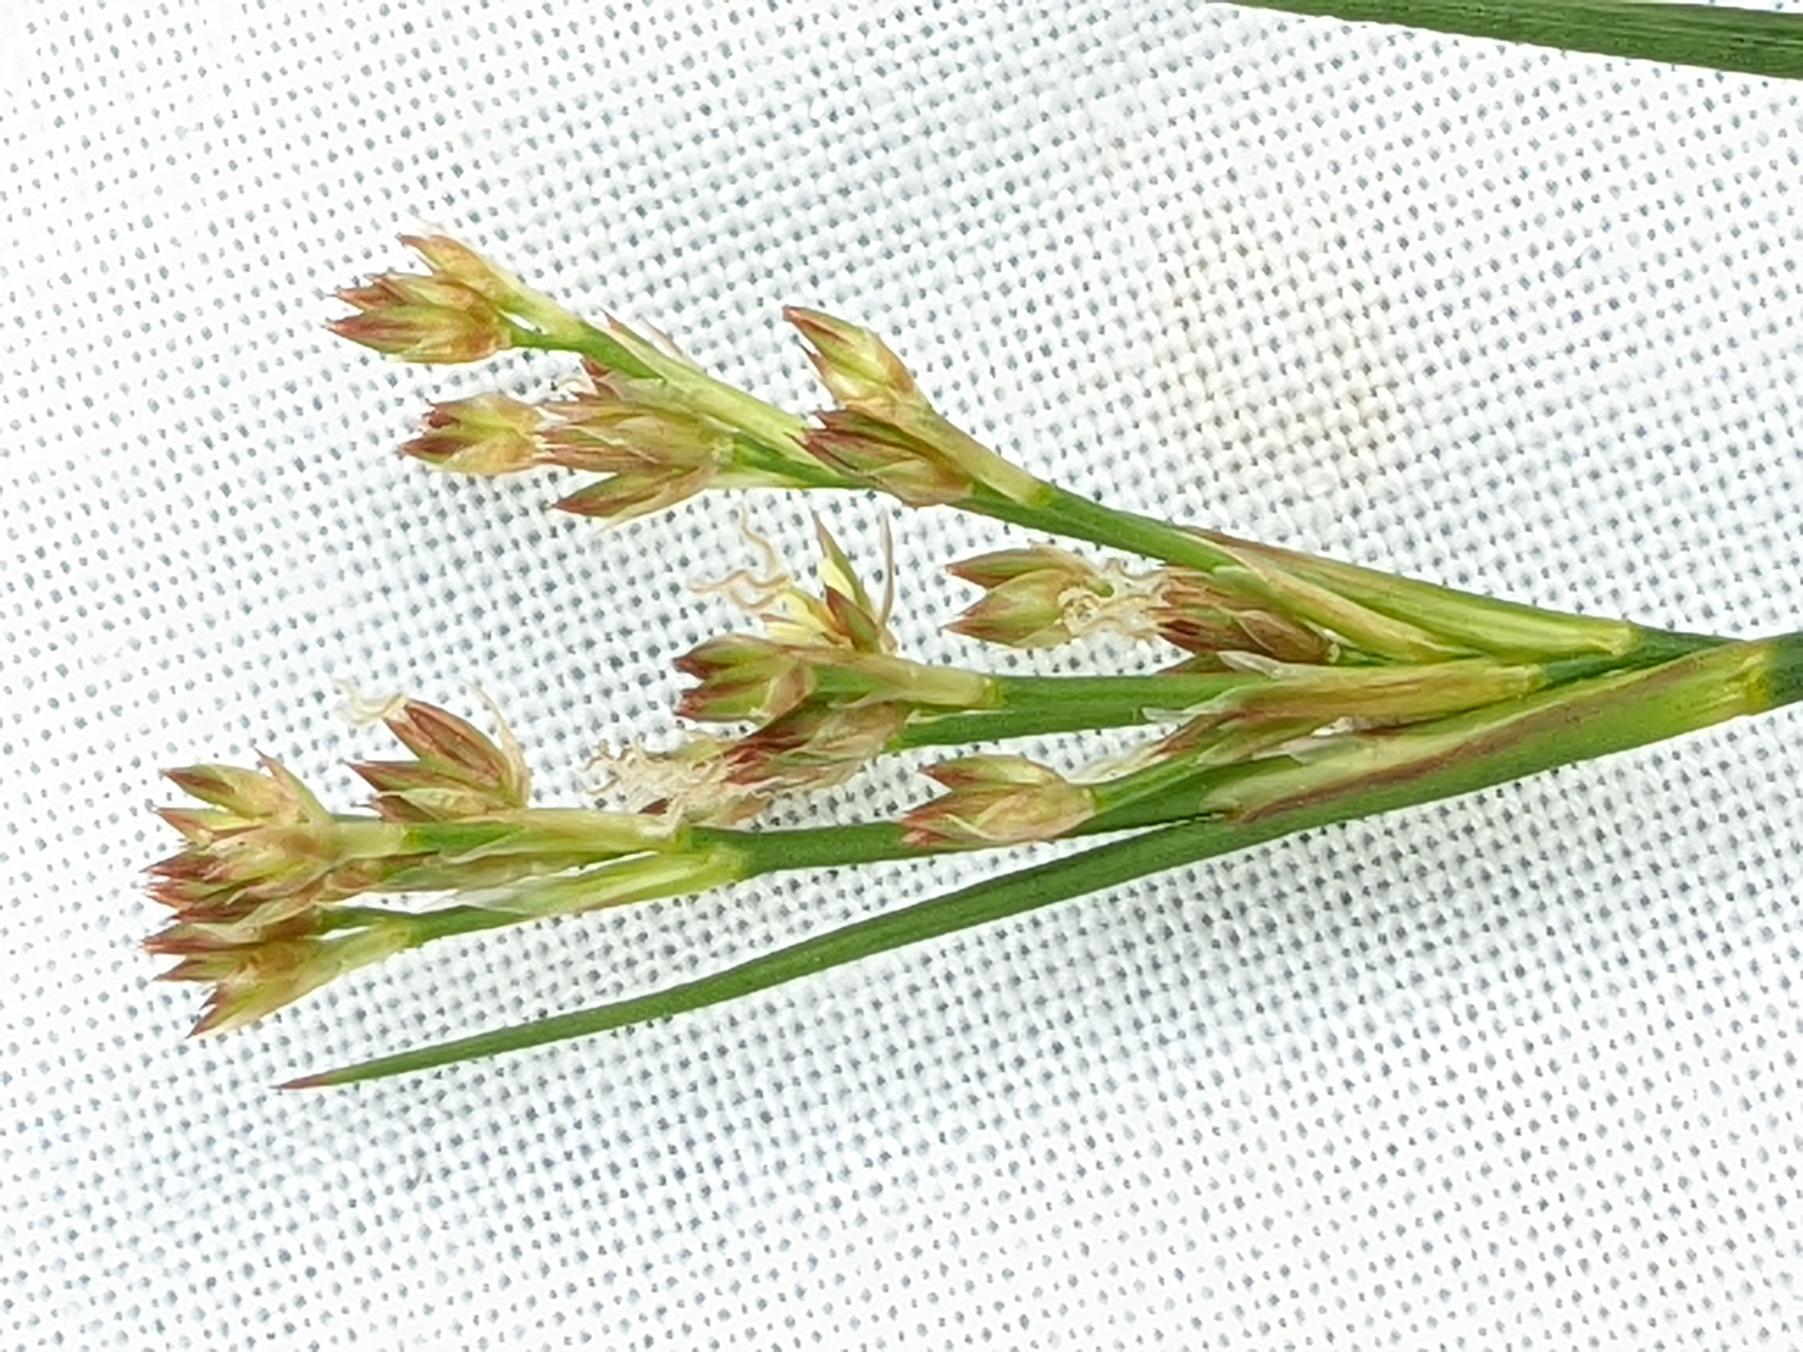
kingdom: Plantae
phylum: Tracheophyta
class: Liliopsida
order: Poales
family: Juncaceae
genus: Juncus
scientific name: Juncus articulatus
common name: Glanskapslet siv
